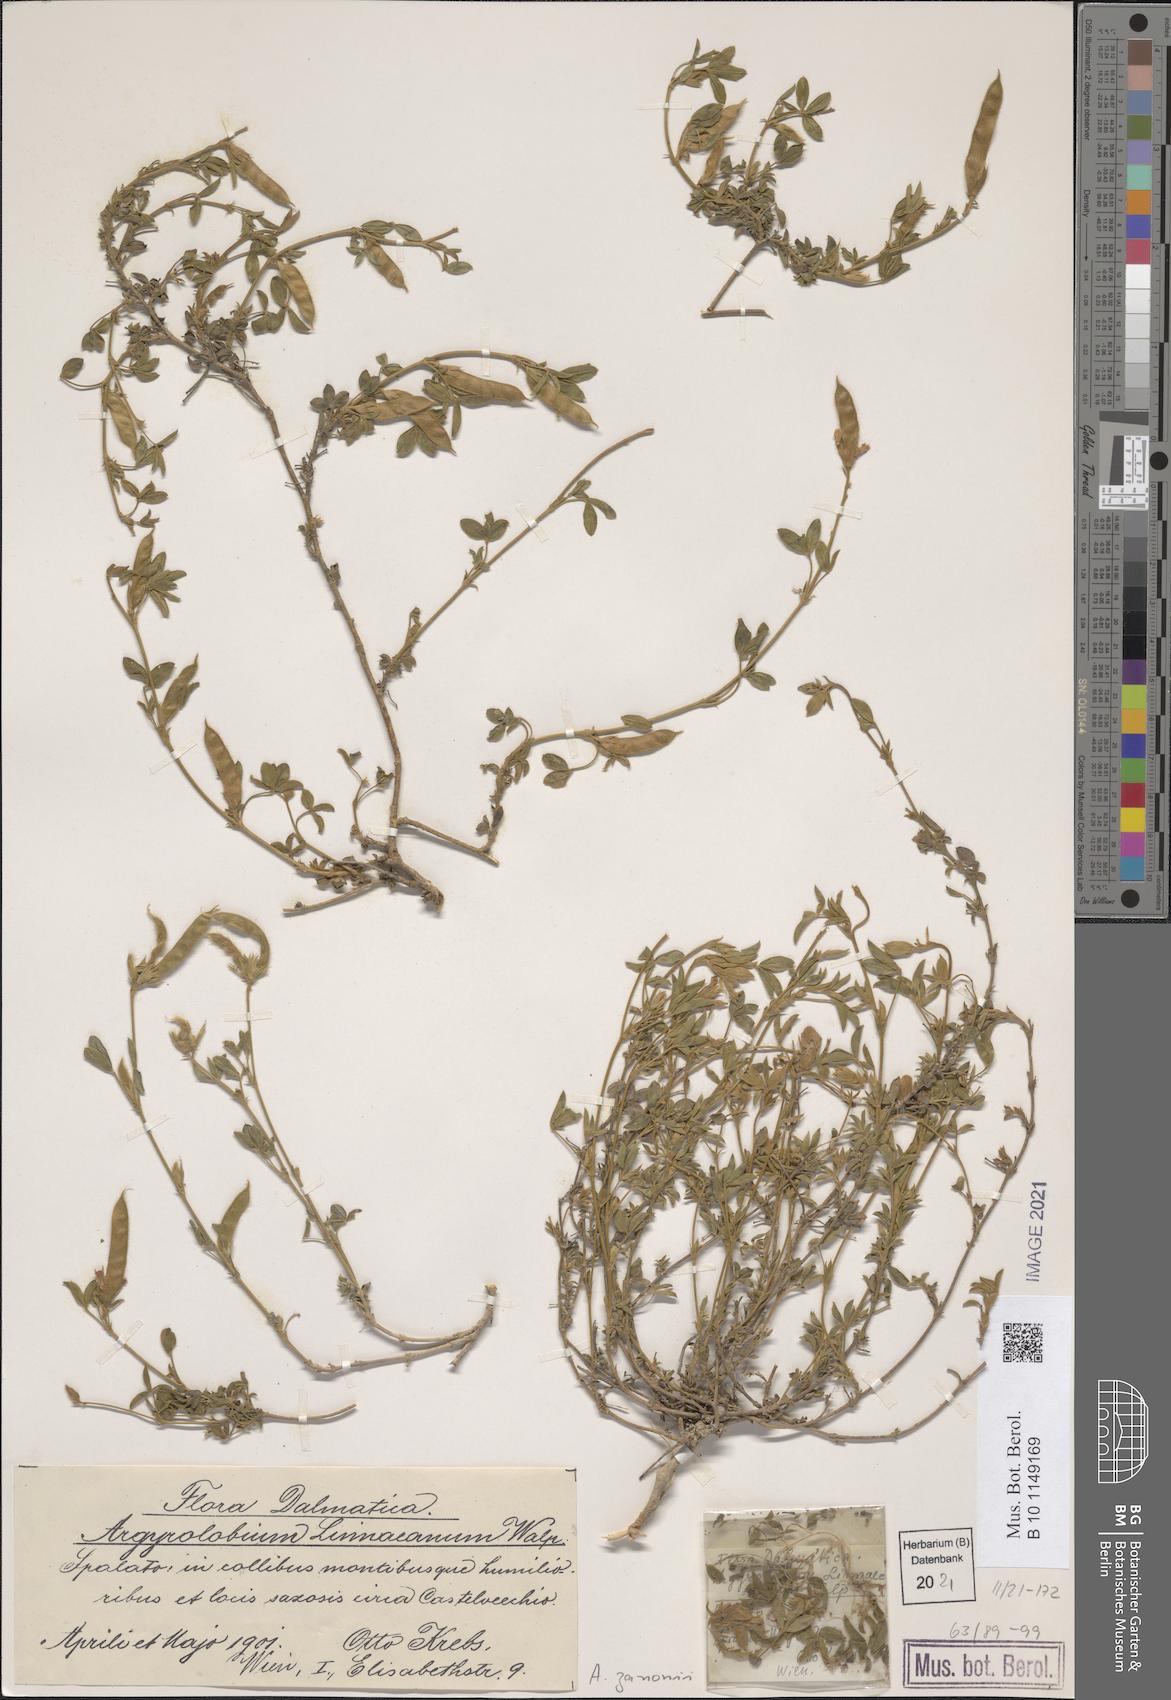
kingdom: Plantae
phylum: Tracheophyta
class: Magnoliopsida
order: Fabales
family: Fabaceae
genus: Argyrolobium
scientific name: Argyrolobium zanonii
